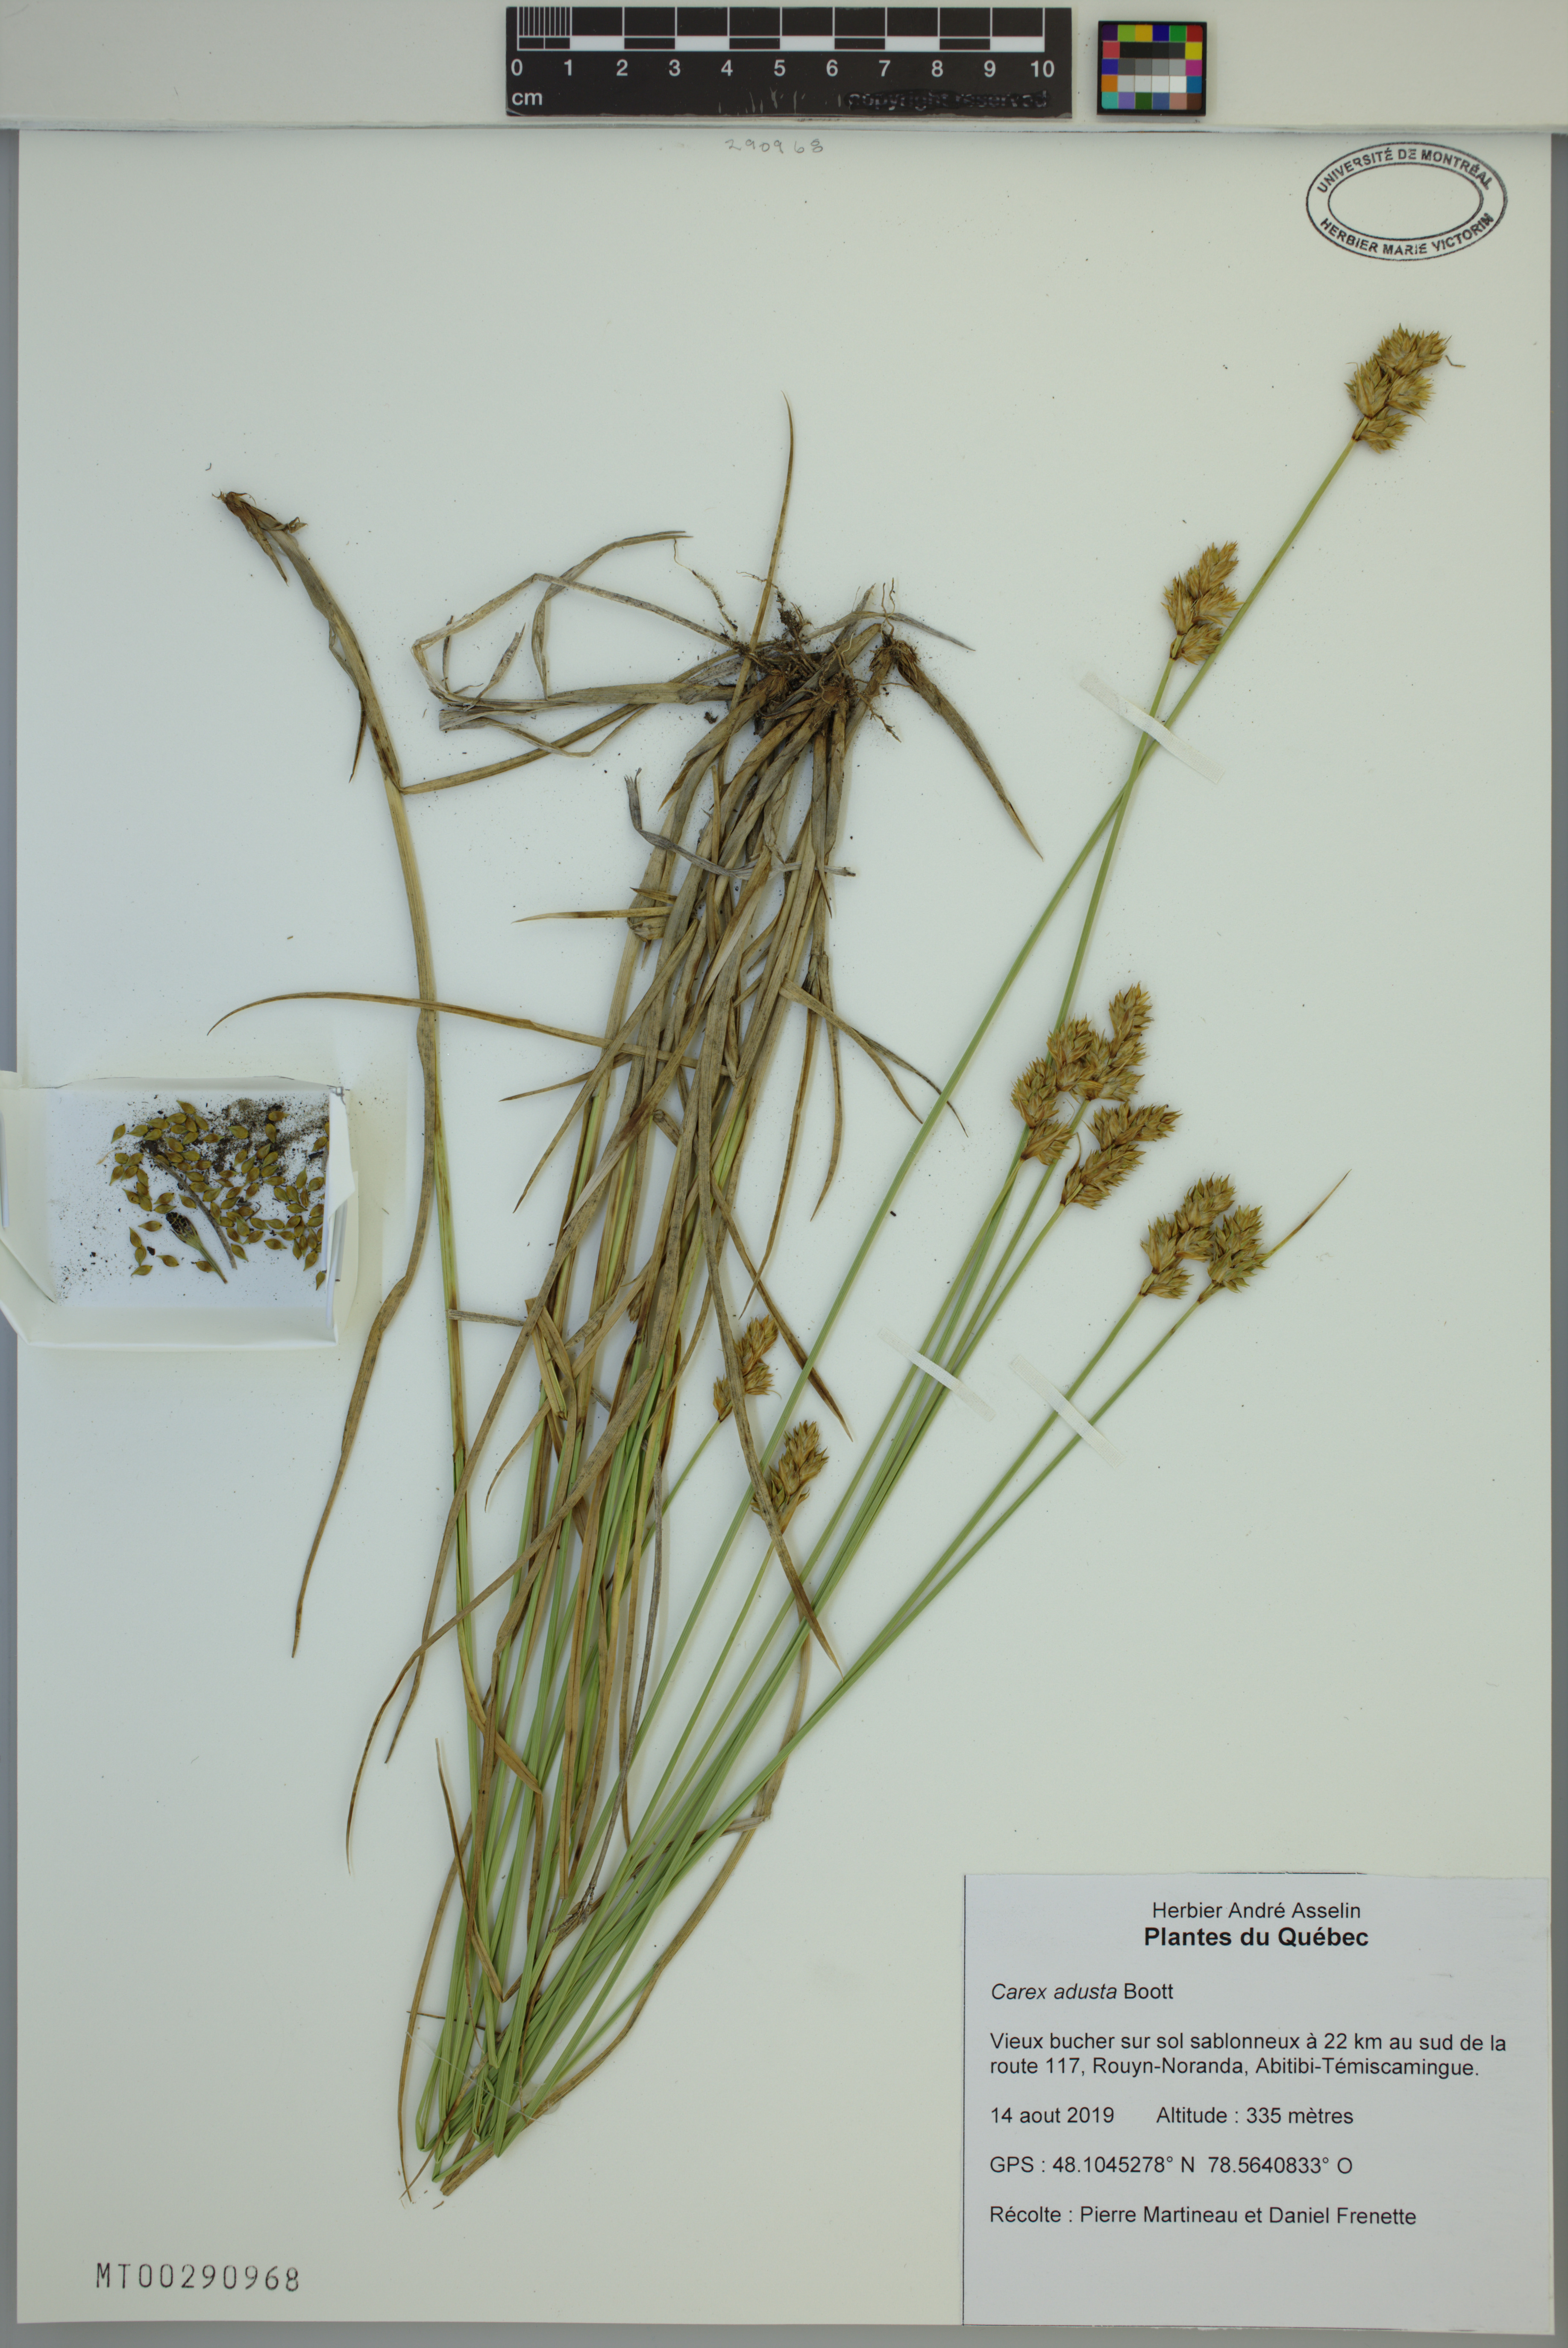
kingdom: Plantae
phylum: Tracheophyta
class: Liliopsida
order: Poales
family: Cyperaceae
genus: Carex
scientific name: Carex adusta
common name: Browned sedge
